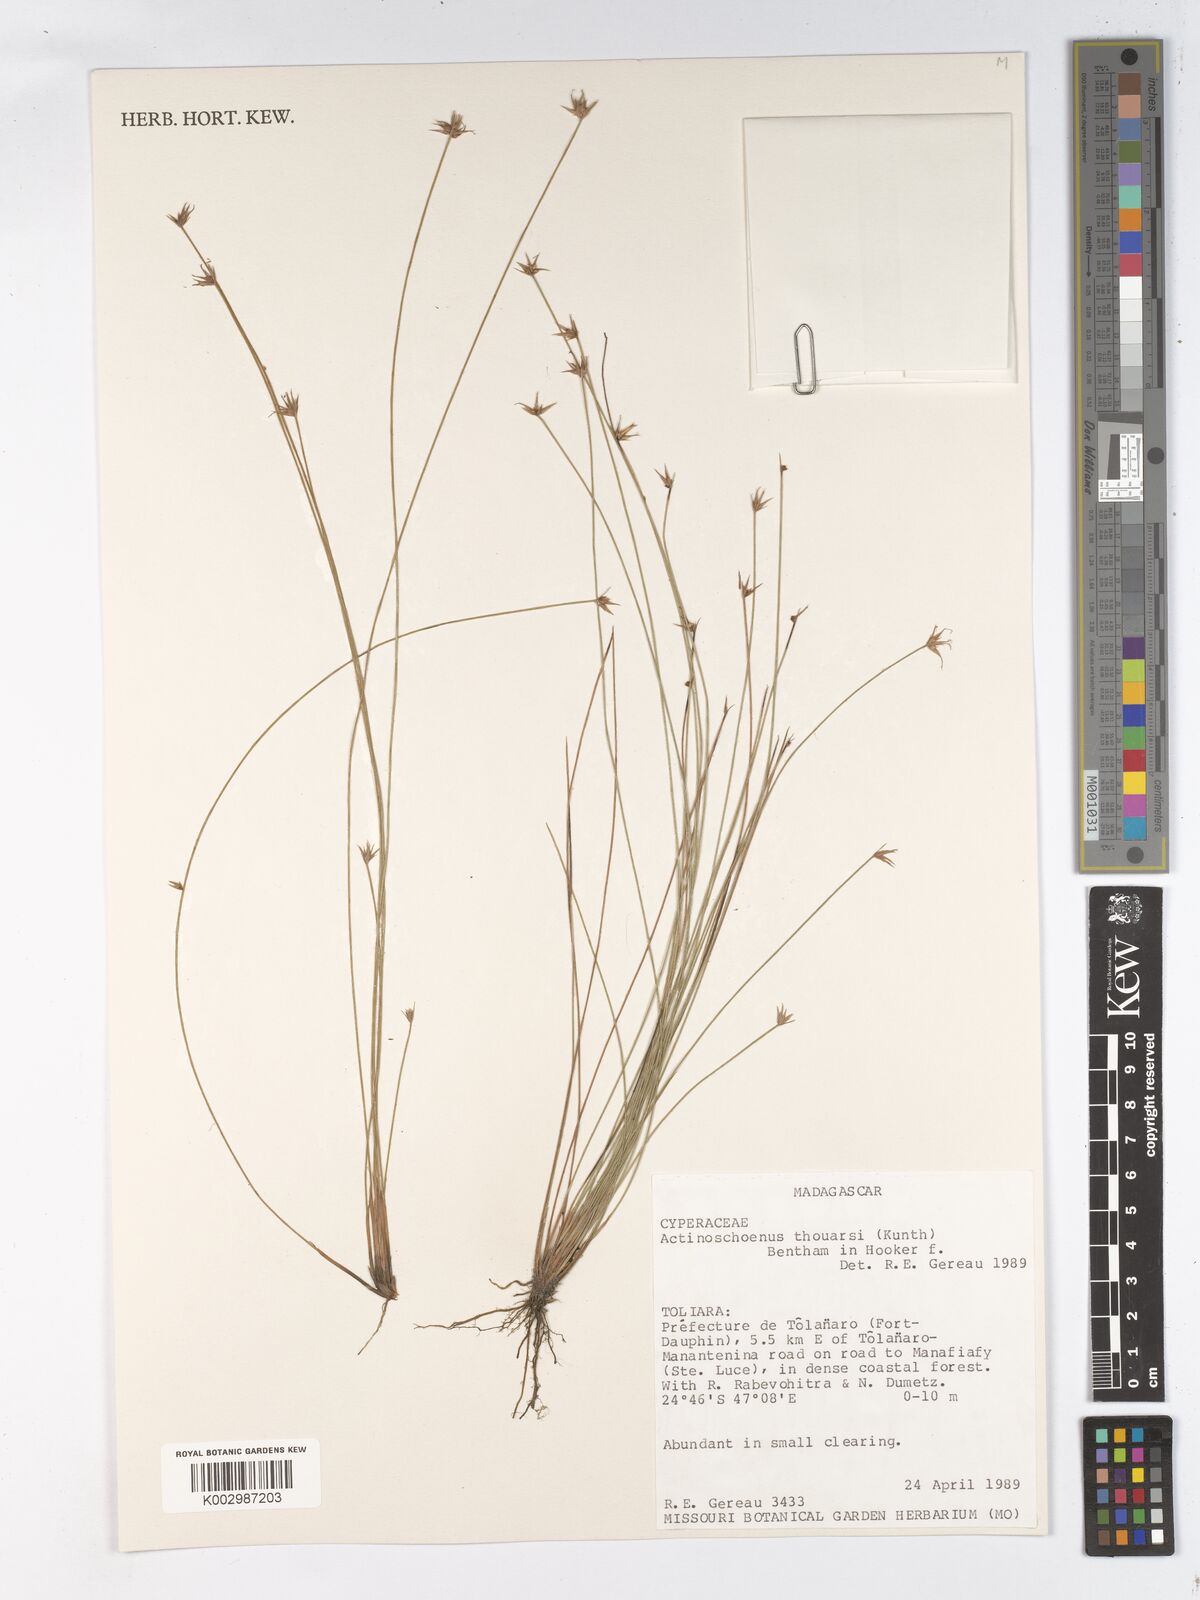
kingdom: Plantae
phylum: Tracheophyta
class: Liliopsida
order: Poales
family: Cyperaceae
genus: Actinoschoenus
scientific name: Actinoschoenus aphyllus
